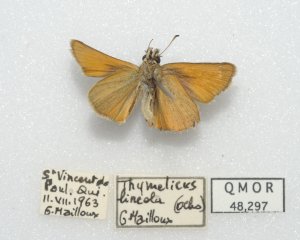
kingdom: Animalia
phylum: Arthropoda
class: Insecta
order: Lepidoptera
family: Hesperiidae
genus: Thymelicus
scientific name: Thymelicus lineola
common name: European Skipper
